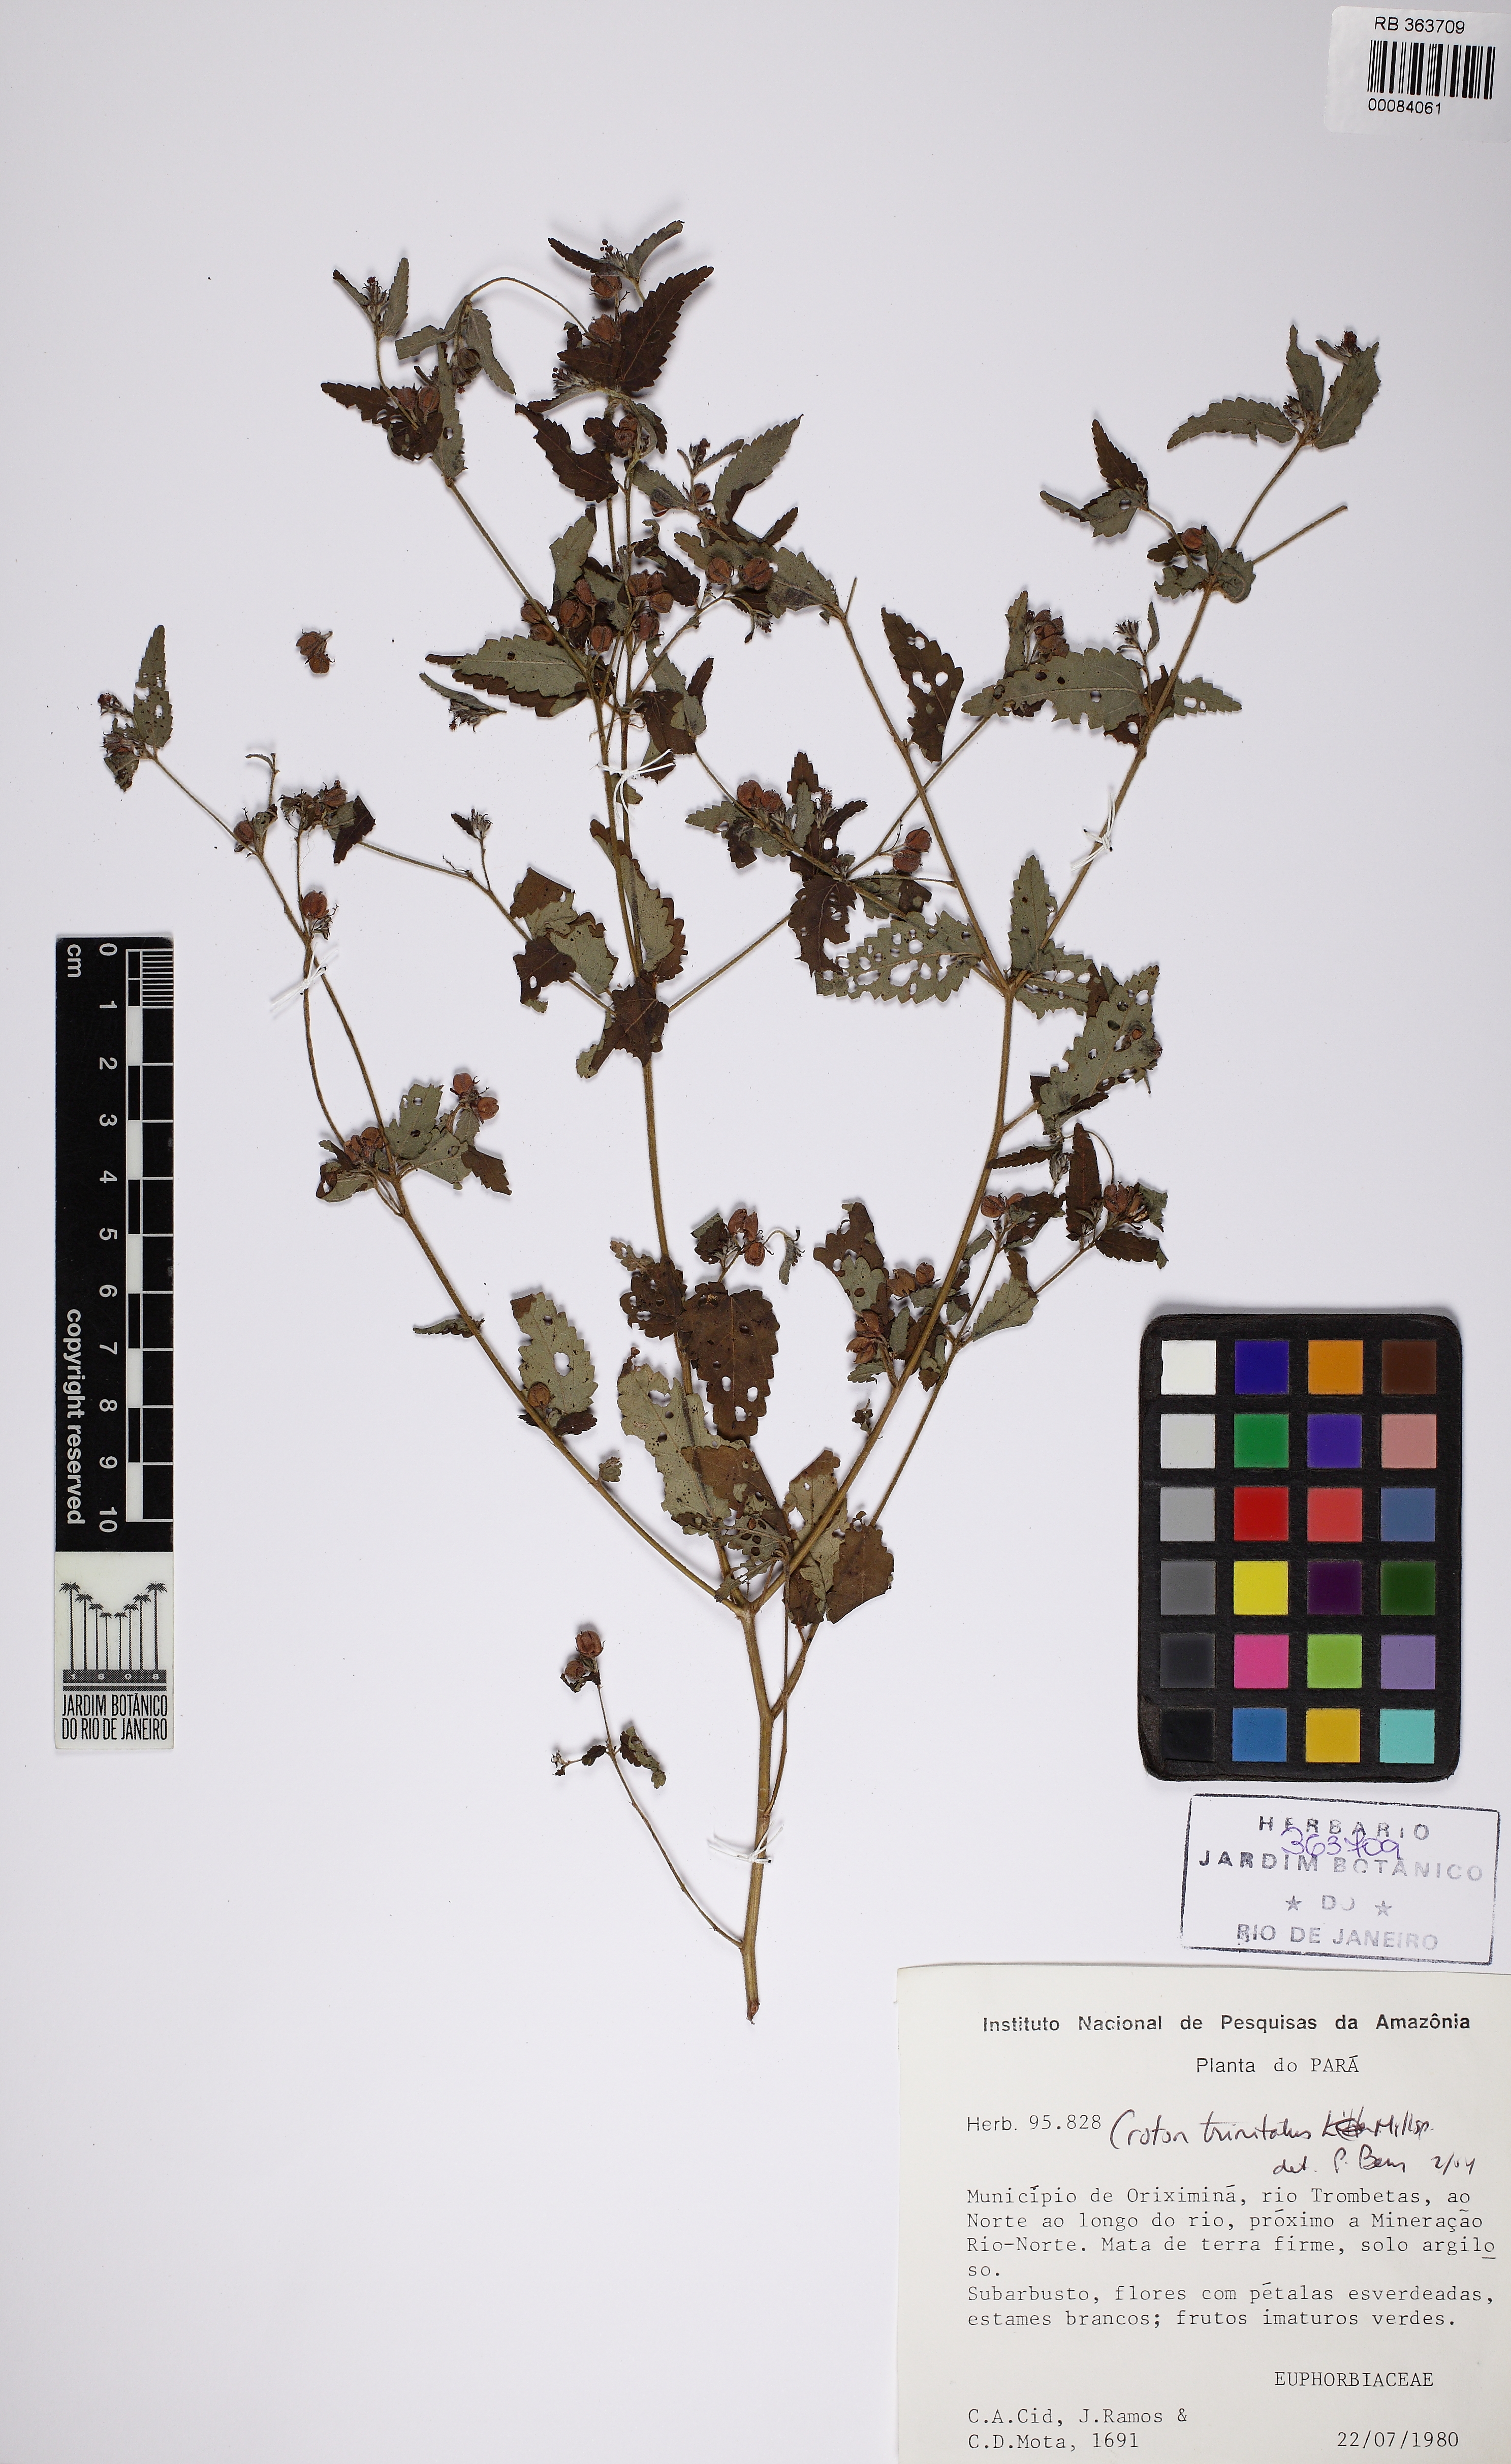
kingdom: Plantae
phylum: Tracheophyta
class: Magnoliopsida
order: Malpighiales
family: Euphorbiaceae
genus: Croton
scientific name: Croton trinitatis
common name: Roadside croton
